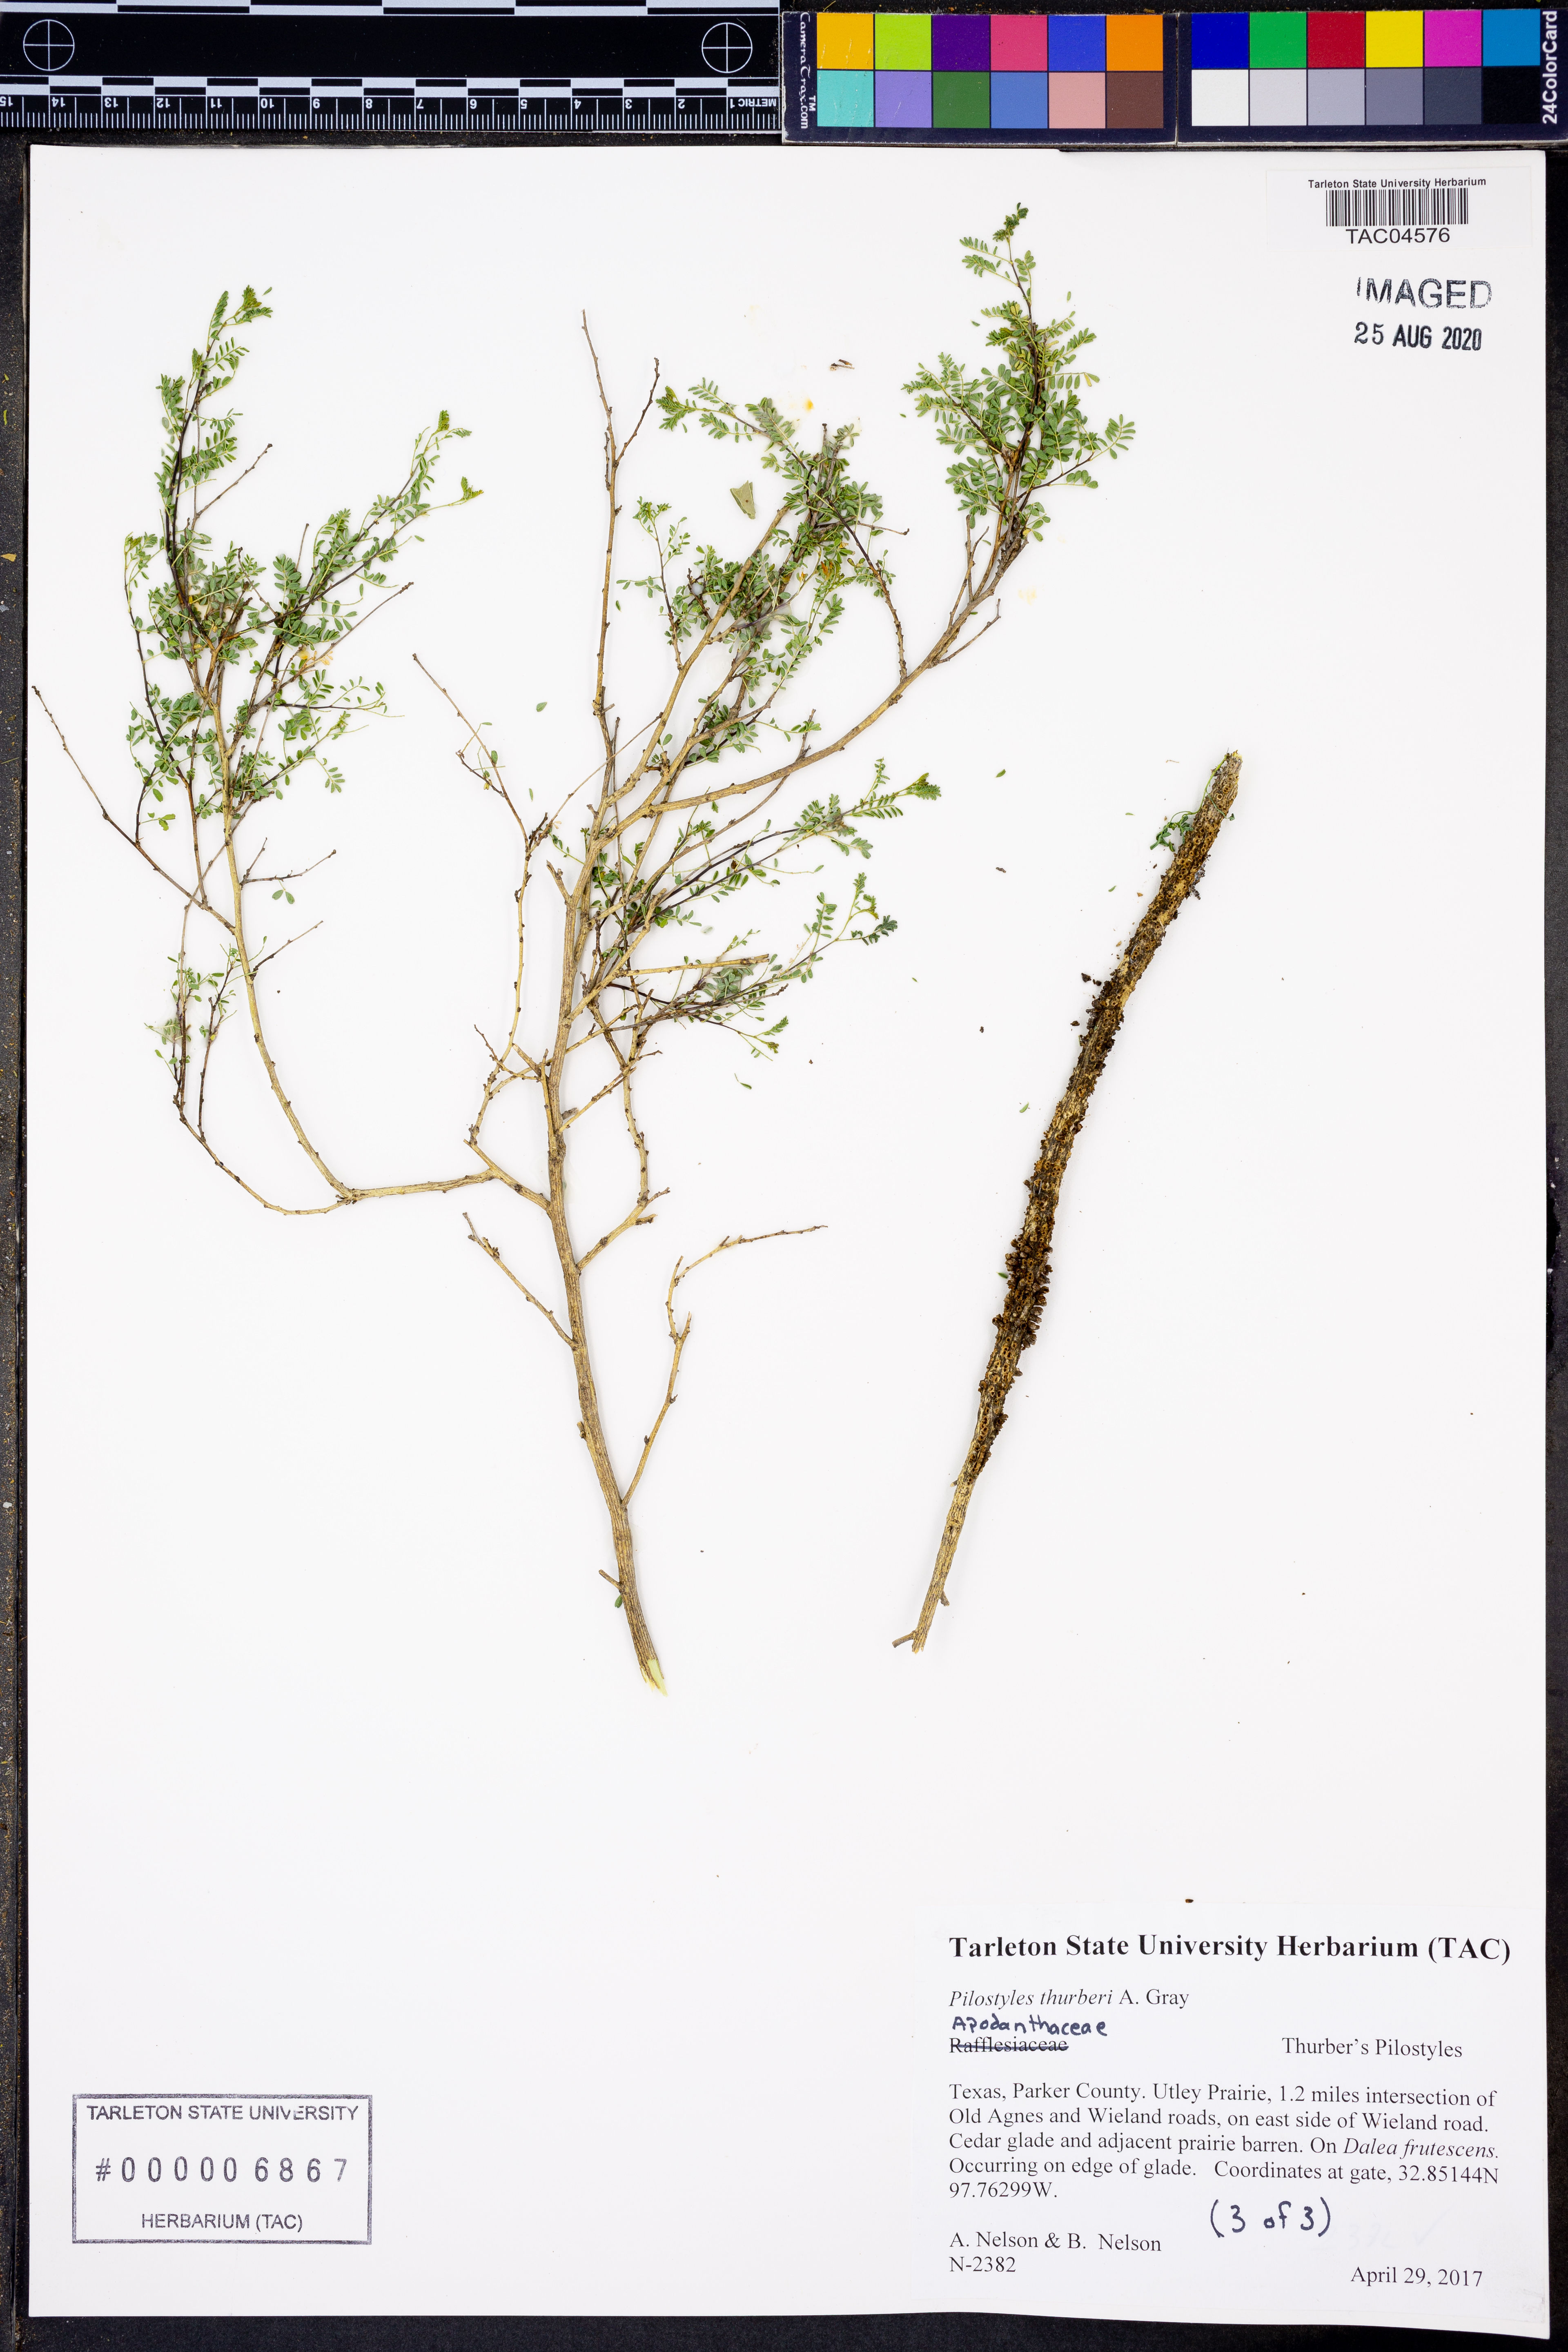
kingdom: Plantae
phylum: Tracheophyta
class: Magnoliopsida
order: Cucurbitales
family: Apodanthaceae
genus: Pilostyles
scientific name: Pilostyles thurberi
